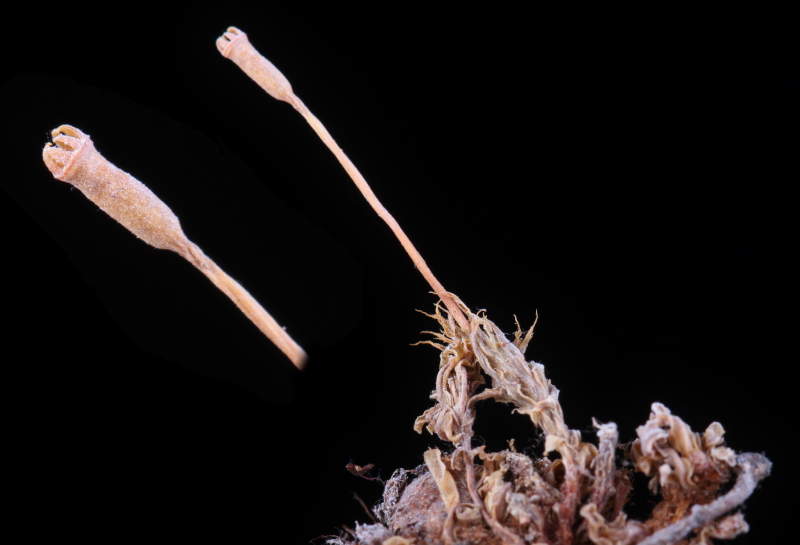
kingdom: Plantae
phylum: Bryophyta
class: Bryopsida
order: Splachnales
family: Splachnaceae
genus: Tayloria
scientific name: Tayloria subglabra
